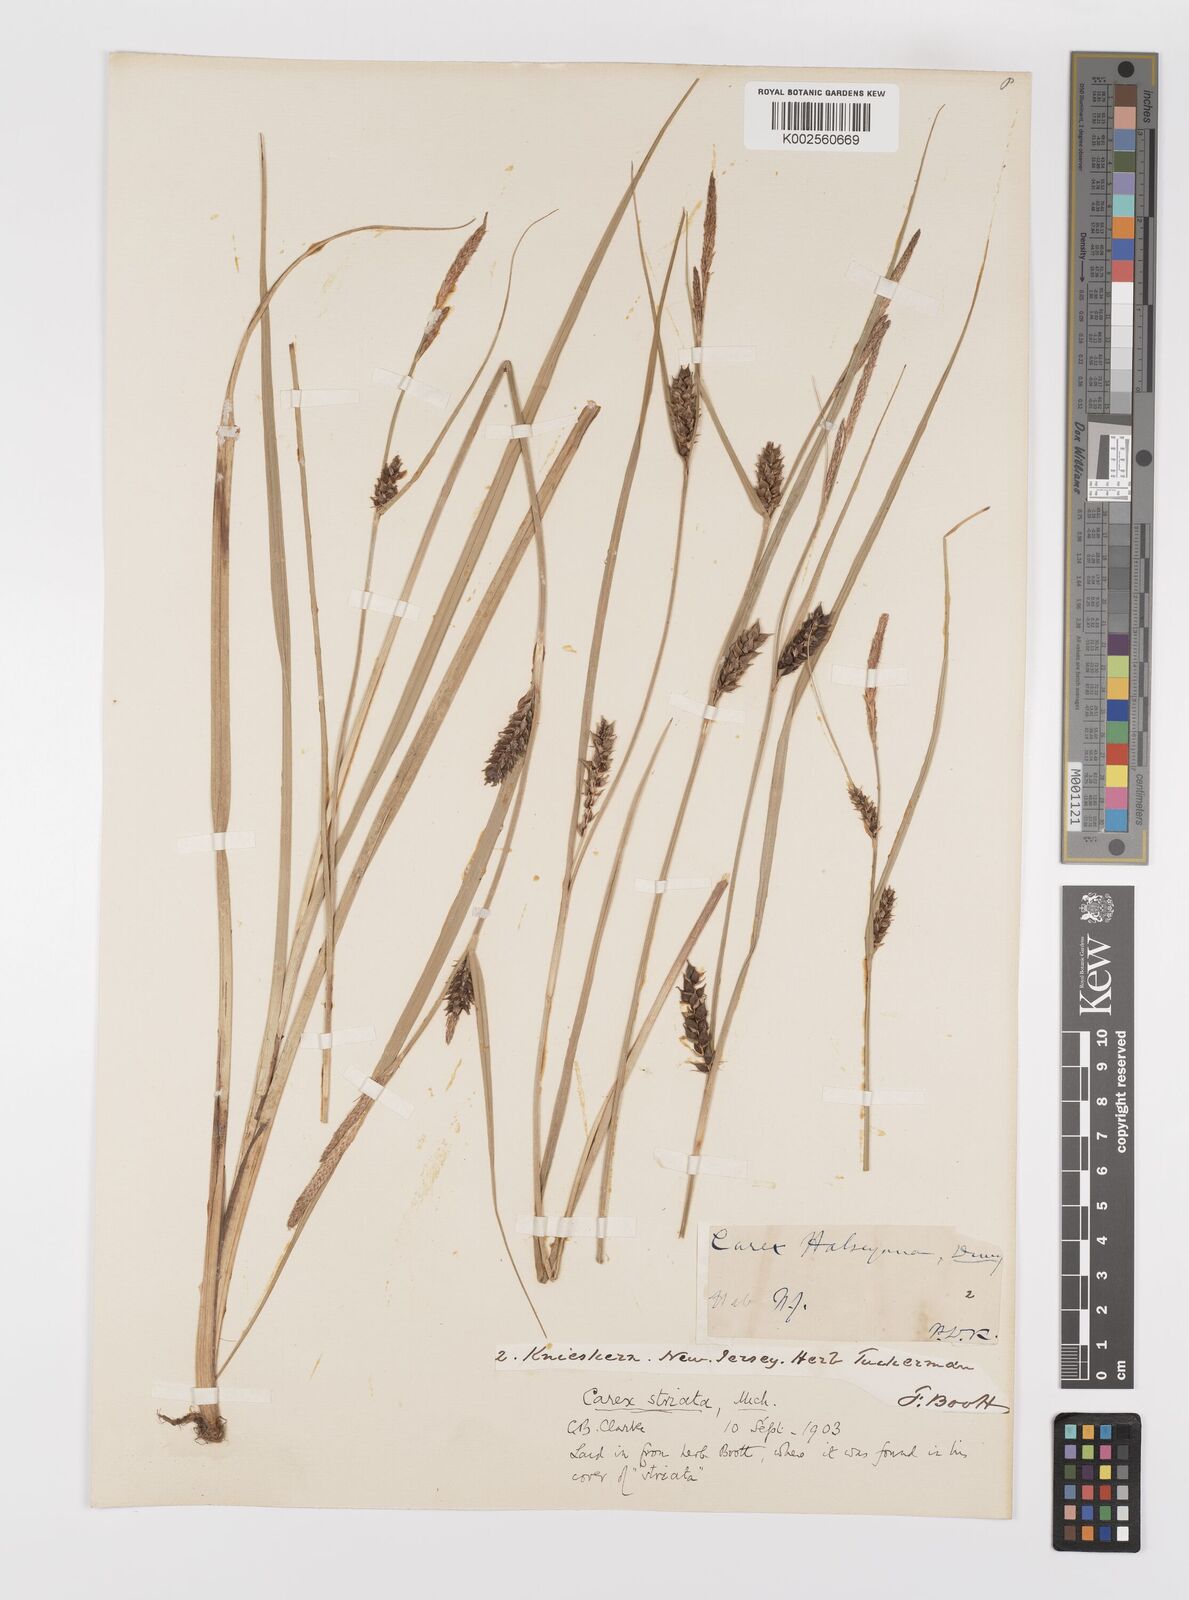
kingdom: Plantae
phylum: Tracheophyta
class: Liliopsida
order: Poales
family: Cyperaceae
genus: Carex
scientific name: Carex striata
